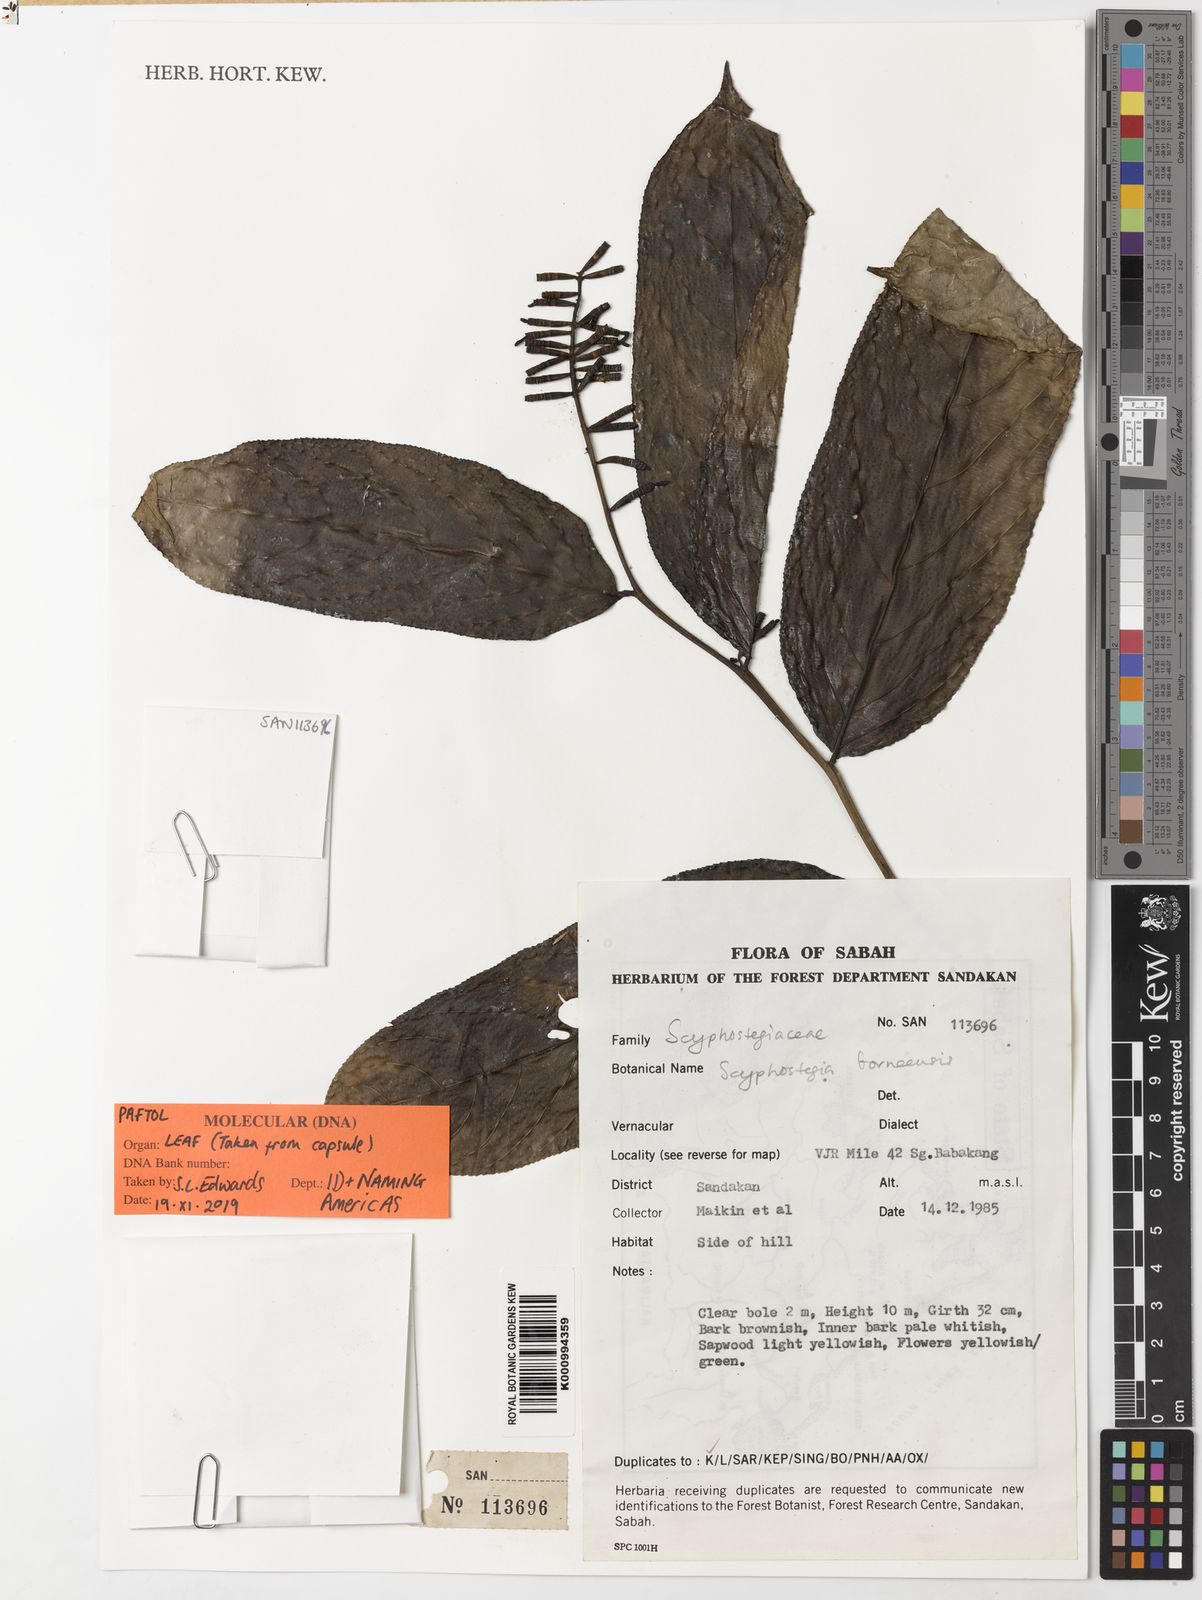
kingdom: Plantae
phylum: Tracheophyta
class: Magnoliopsida
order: Malpighiales
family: Salicaceae
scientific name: Salicaceae
